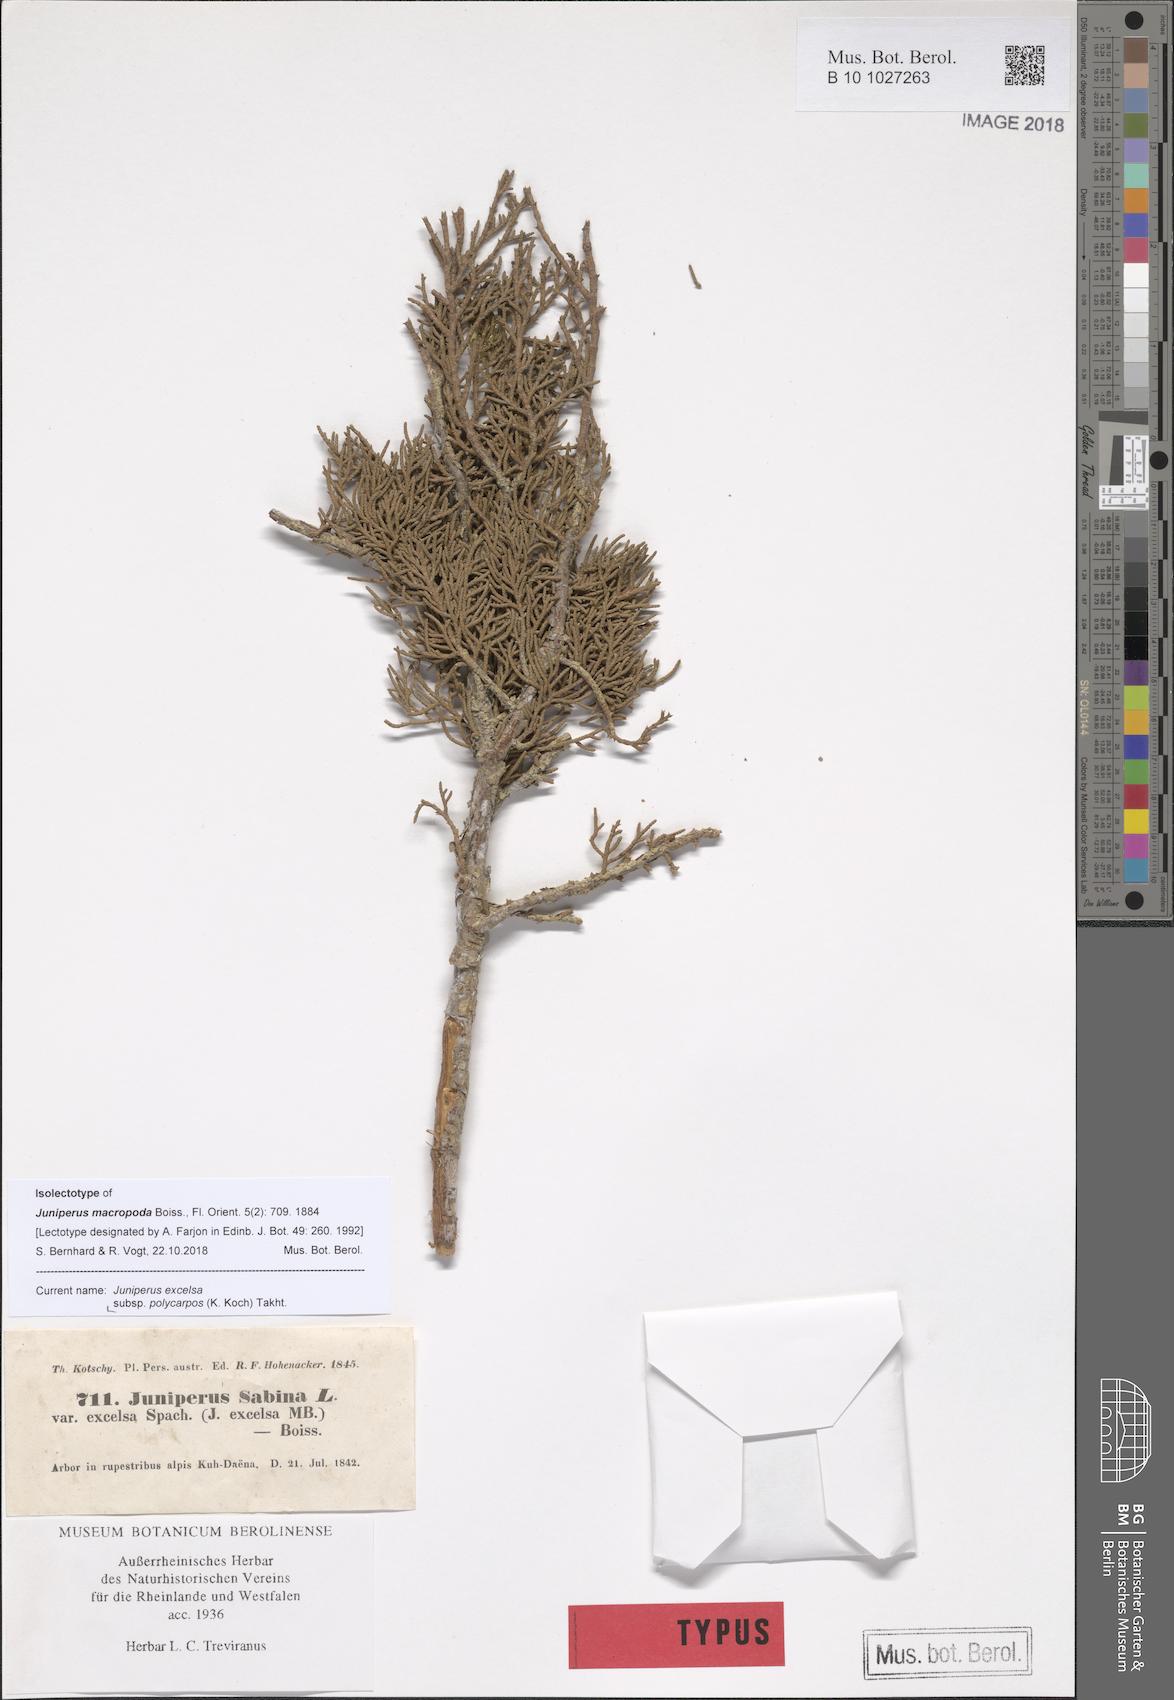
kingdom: Plantae
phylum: Tracheophyta
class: Pinopsida
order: Pinales
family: Cupressaceae
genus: Juniperus
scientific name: Juniperus excelsa
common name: Crimean juniper
